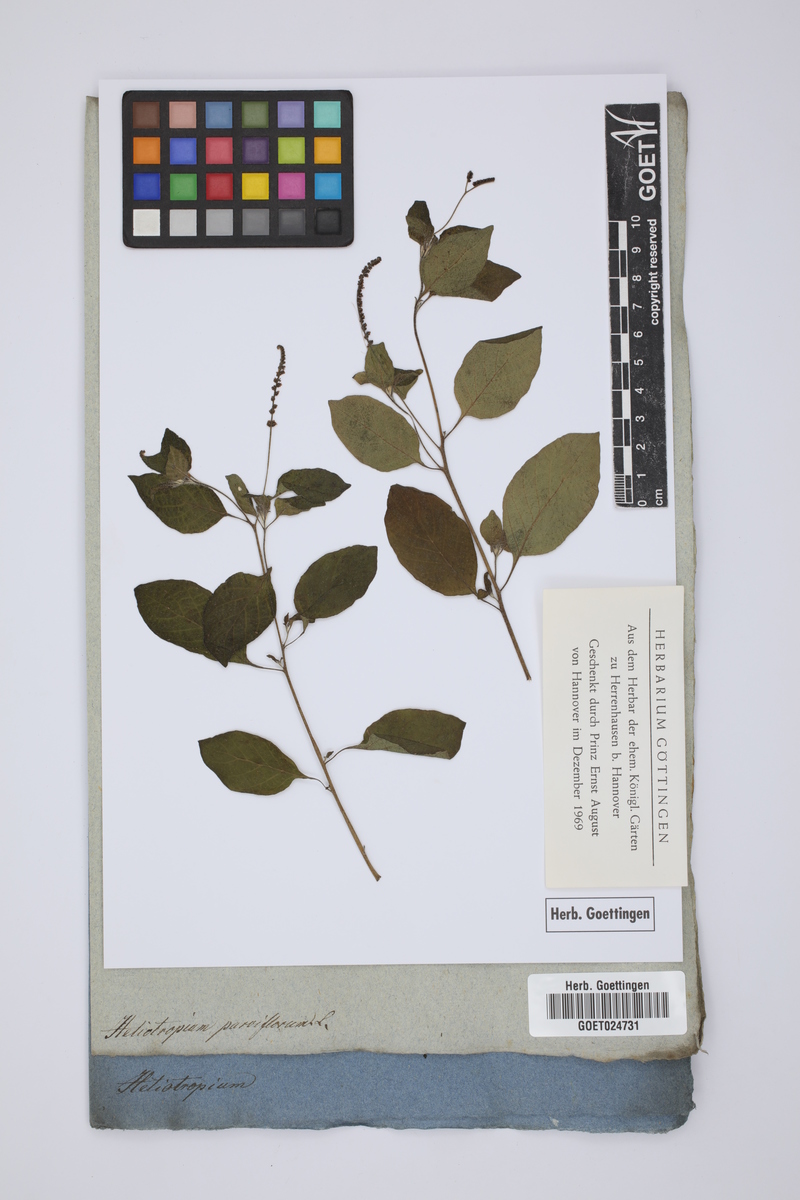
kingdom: Plantae
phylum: Tracheophyta
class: Magnoliopsida
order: Boraginales
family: Heliotropiaceae
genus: Heliotropium
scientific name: Heliotropium angiospermum
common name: Eye bright
